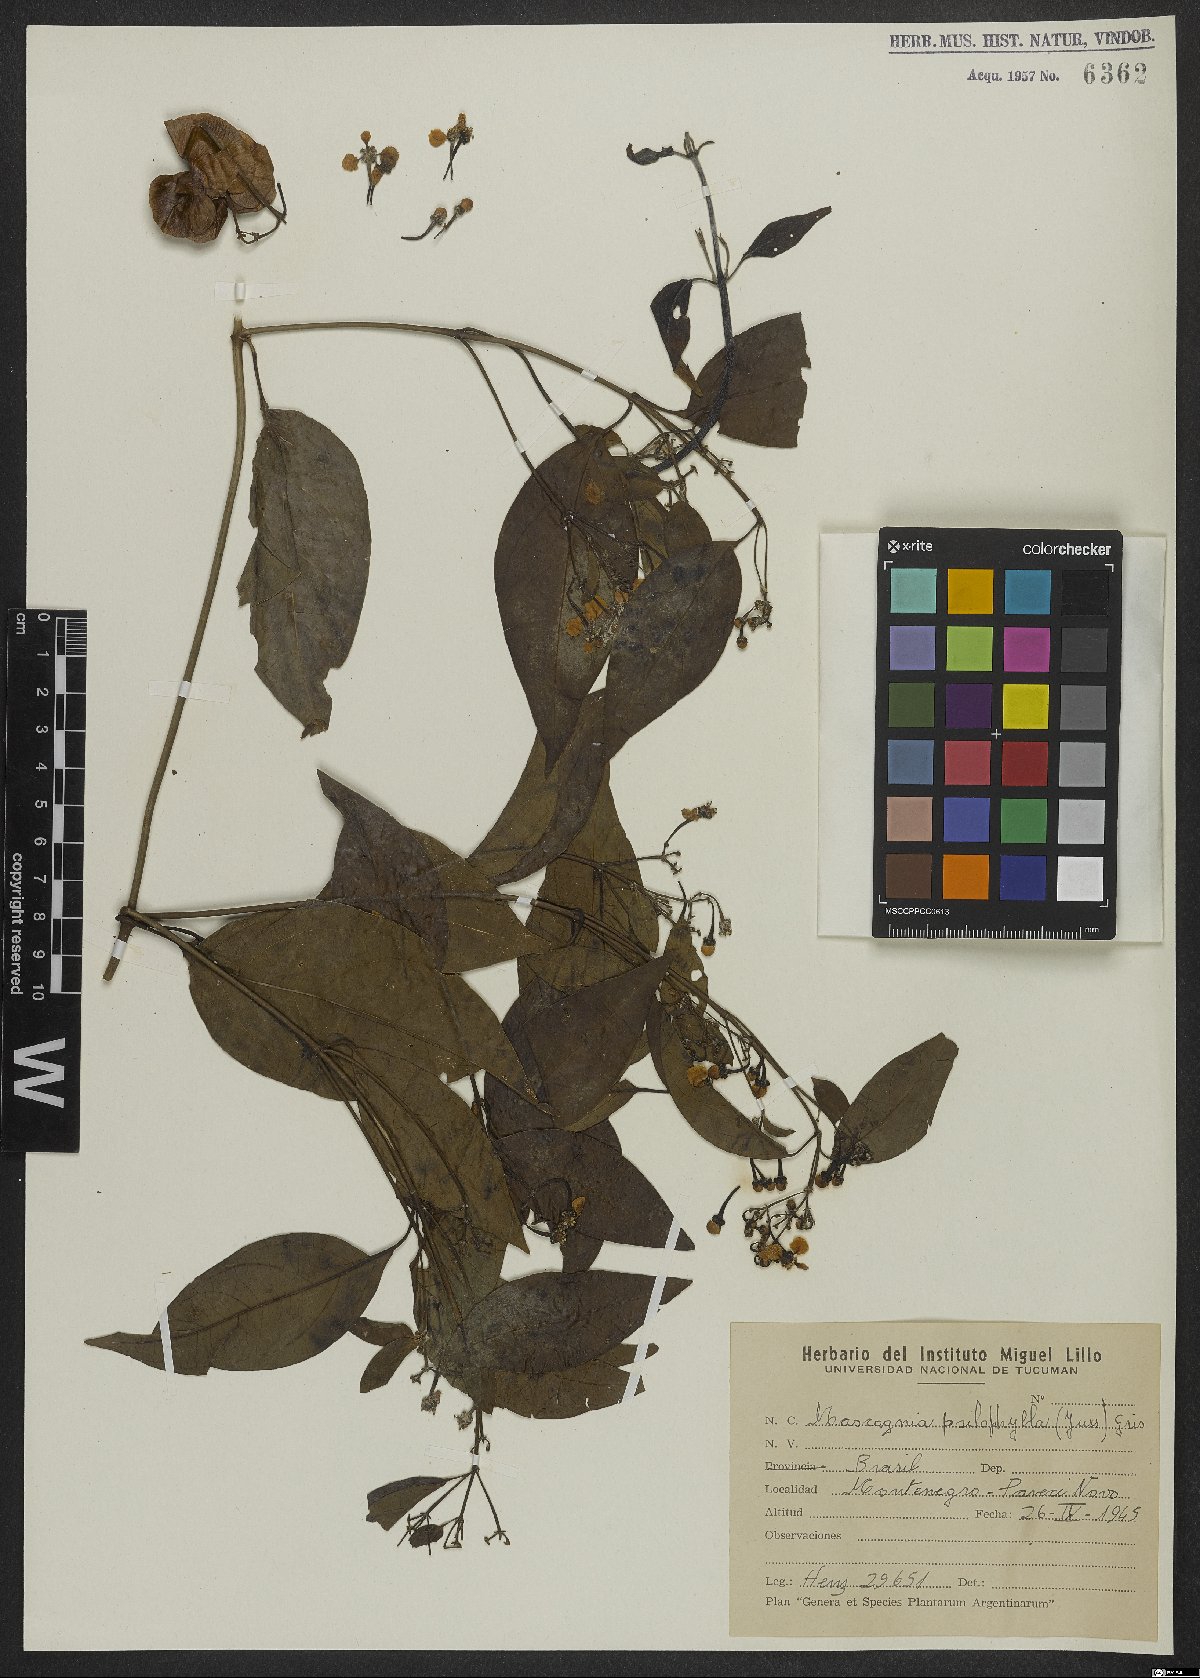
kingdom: Plantae
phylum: Tracheophyta
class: Magnoliopsida
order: Malpighiales
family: Malpighiaceae
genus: Callaeum
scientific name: Callaeum psilophyllum
